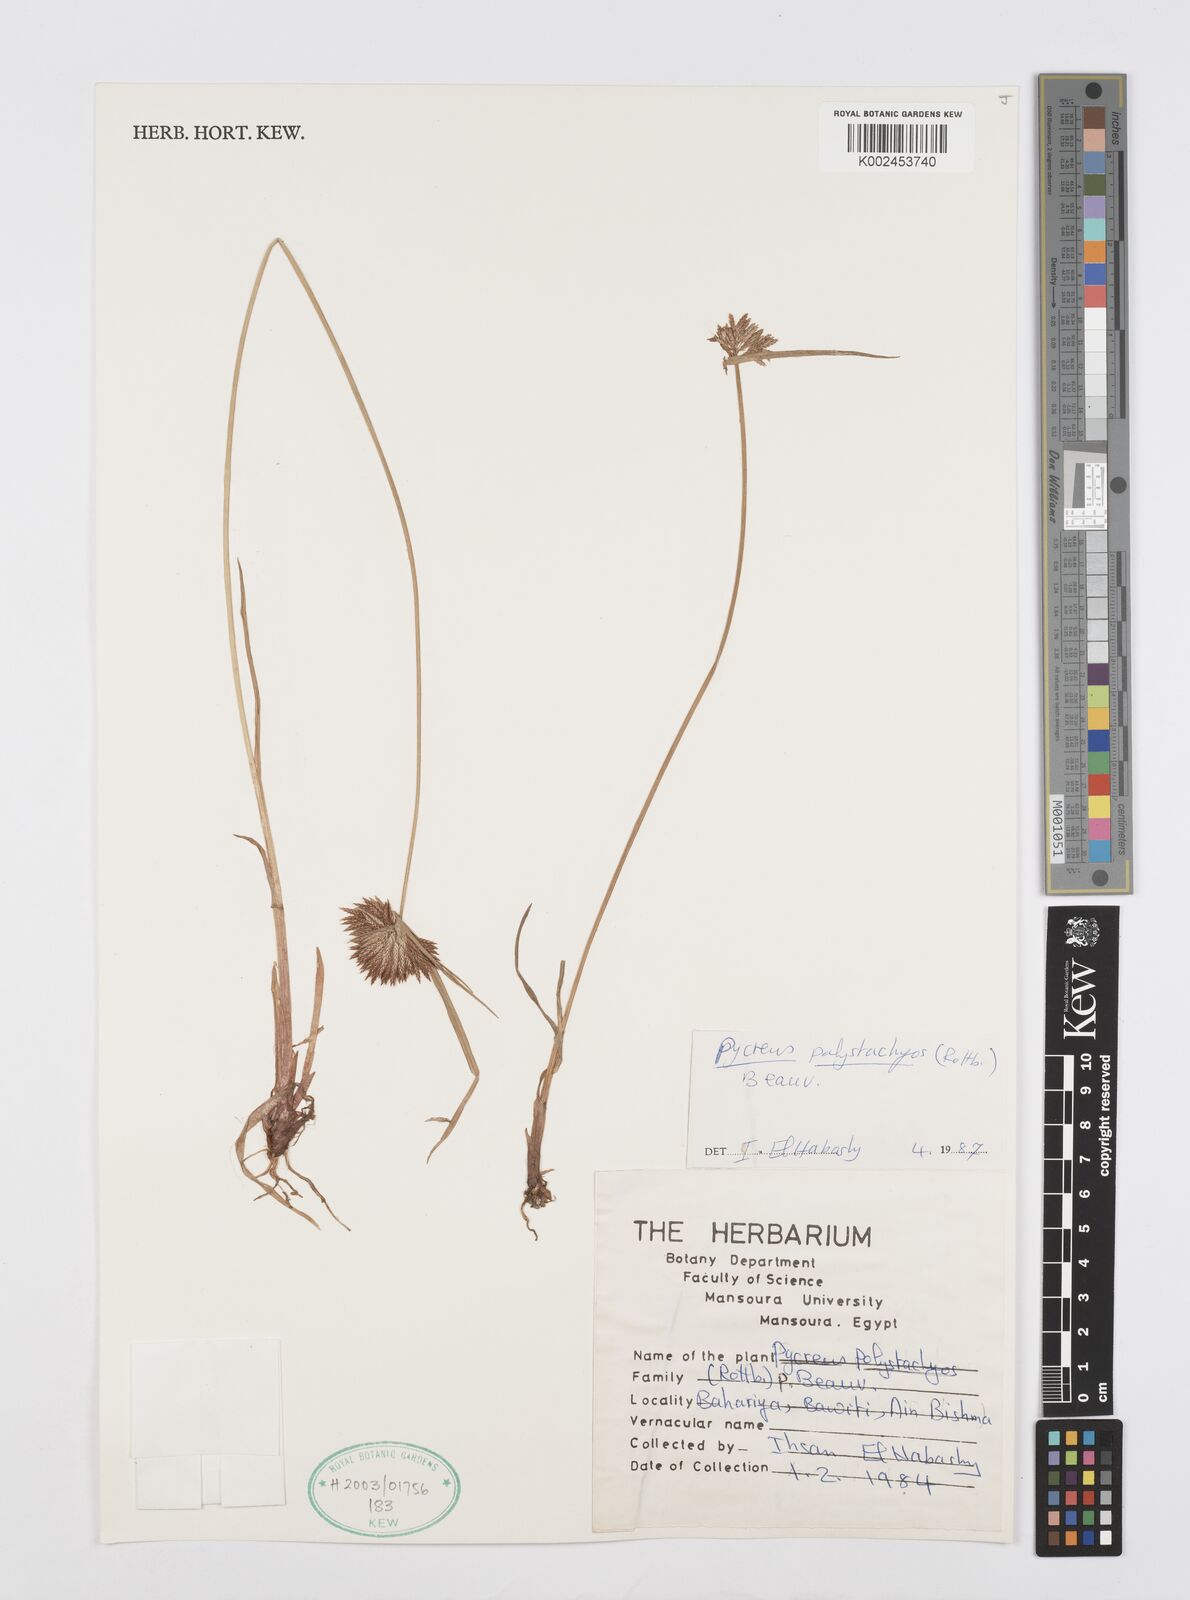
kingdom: Plantae
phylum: Tracheophyta
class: Liliopsida
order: Poales
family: Cyperaceae
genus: Cyperus
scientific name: Cyperus polystachyos
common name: Bunchy flat sedge
